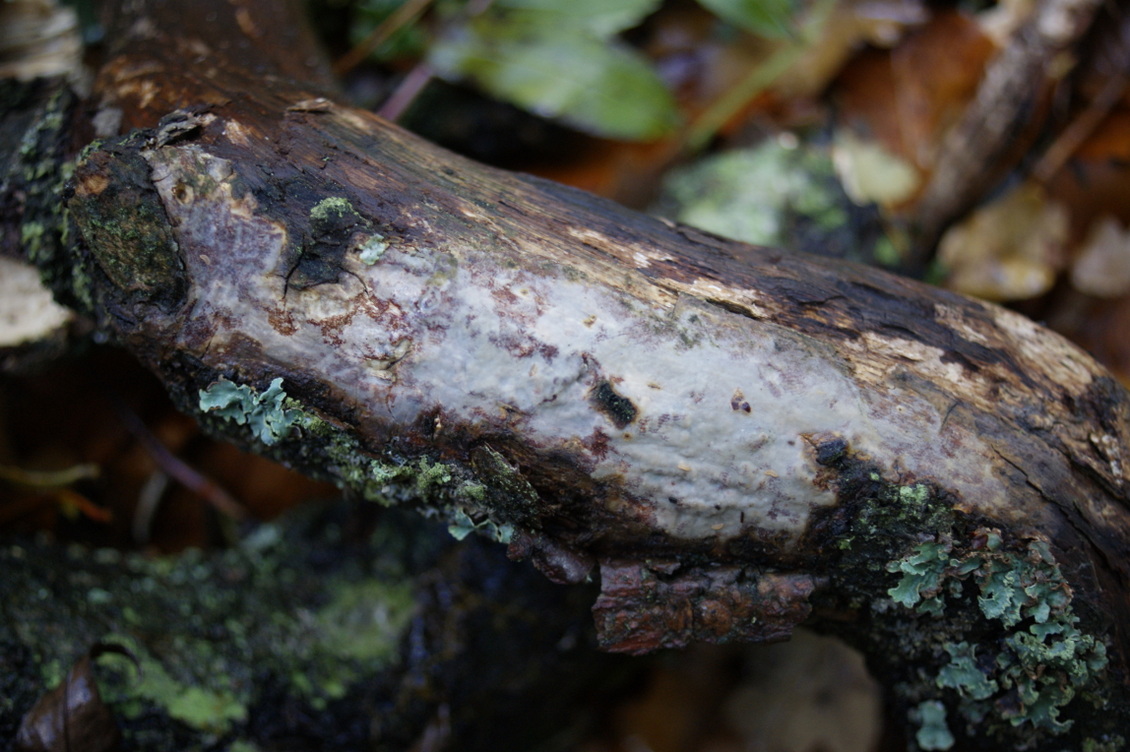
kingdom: Fungi
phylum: Basidiomycota
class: Agaricomycetes
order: Corticiales
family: Vuilleminiaceae
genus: Vuilleminia
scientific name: Vuilleminia comedens
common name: almindelig barksprænger
